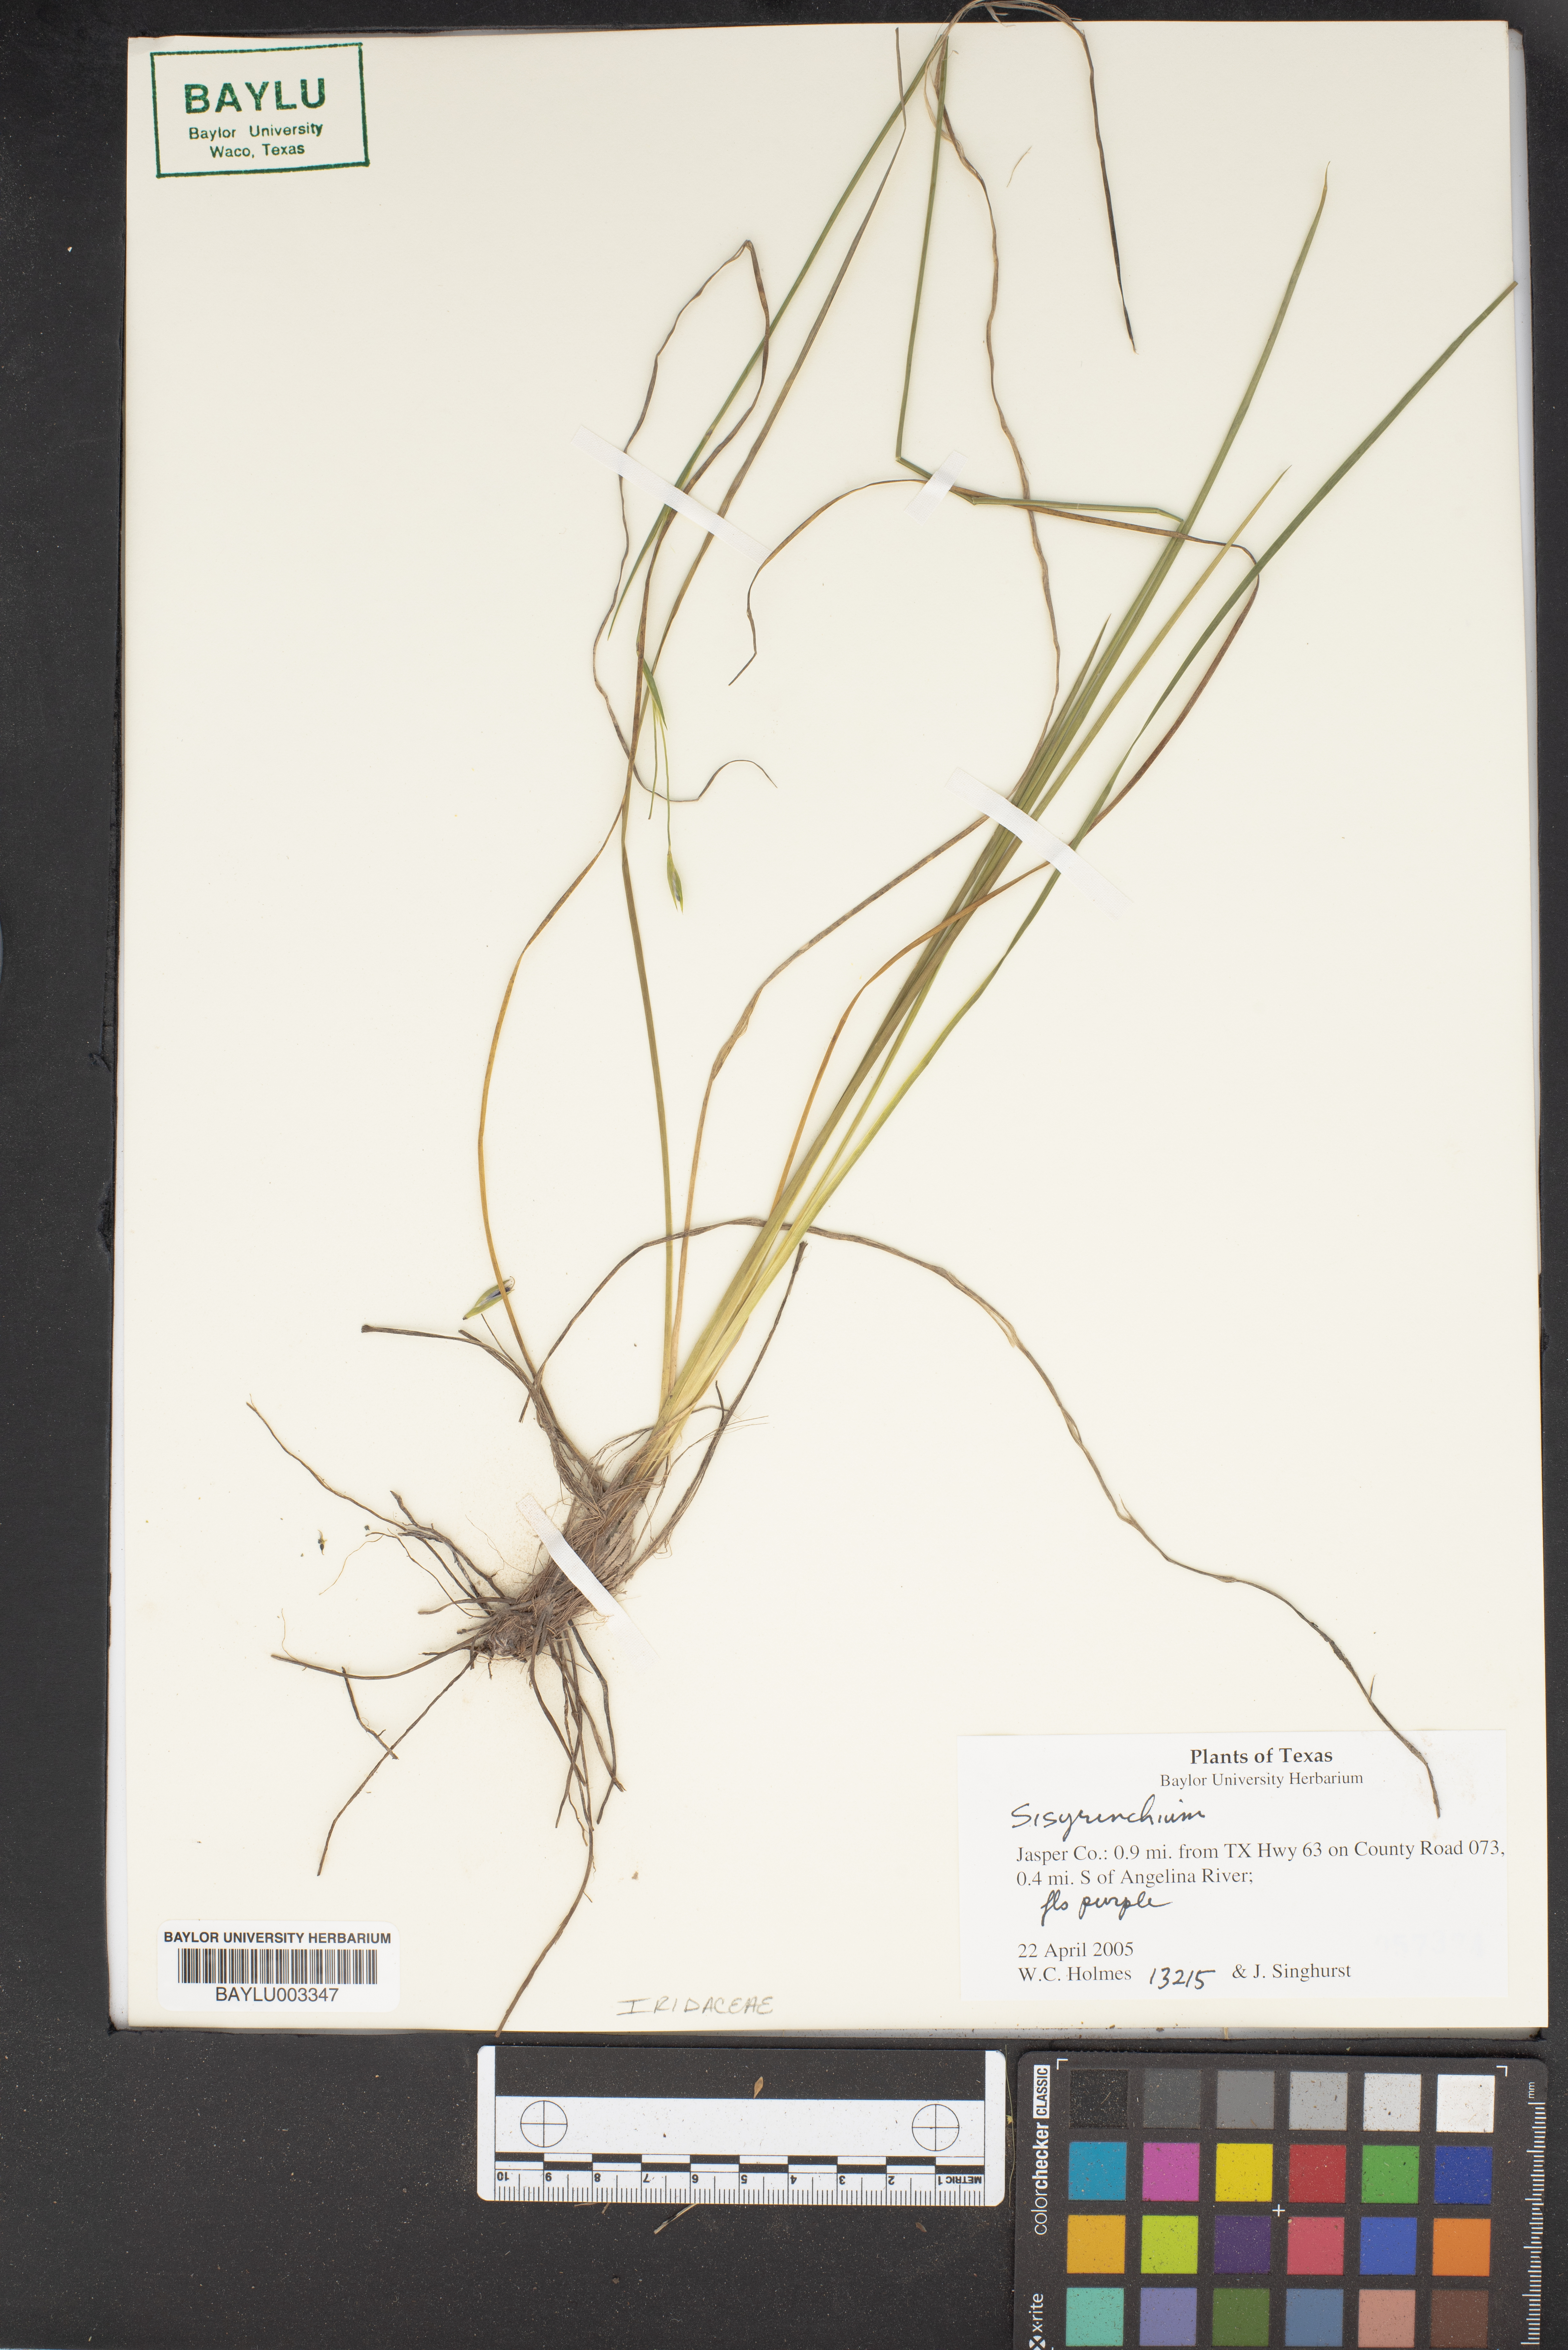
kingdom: Plantae
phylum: Tracheophyta
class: Liliopsida
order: Asparagales
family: Iridaceae
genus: Sisyrenchium
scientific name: Sisyrenchium
